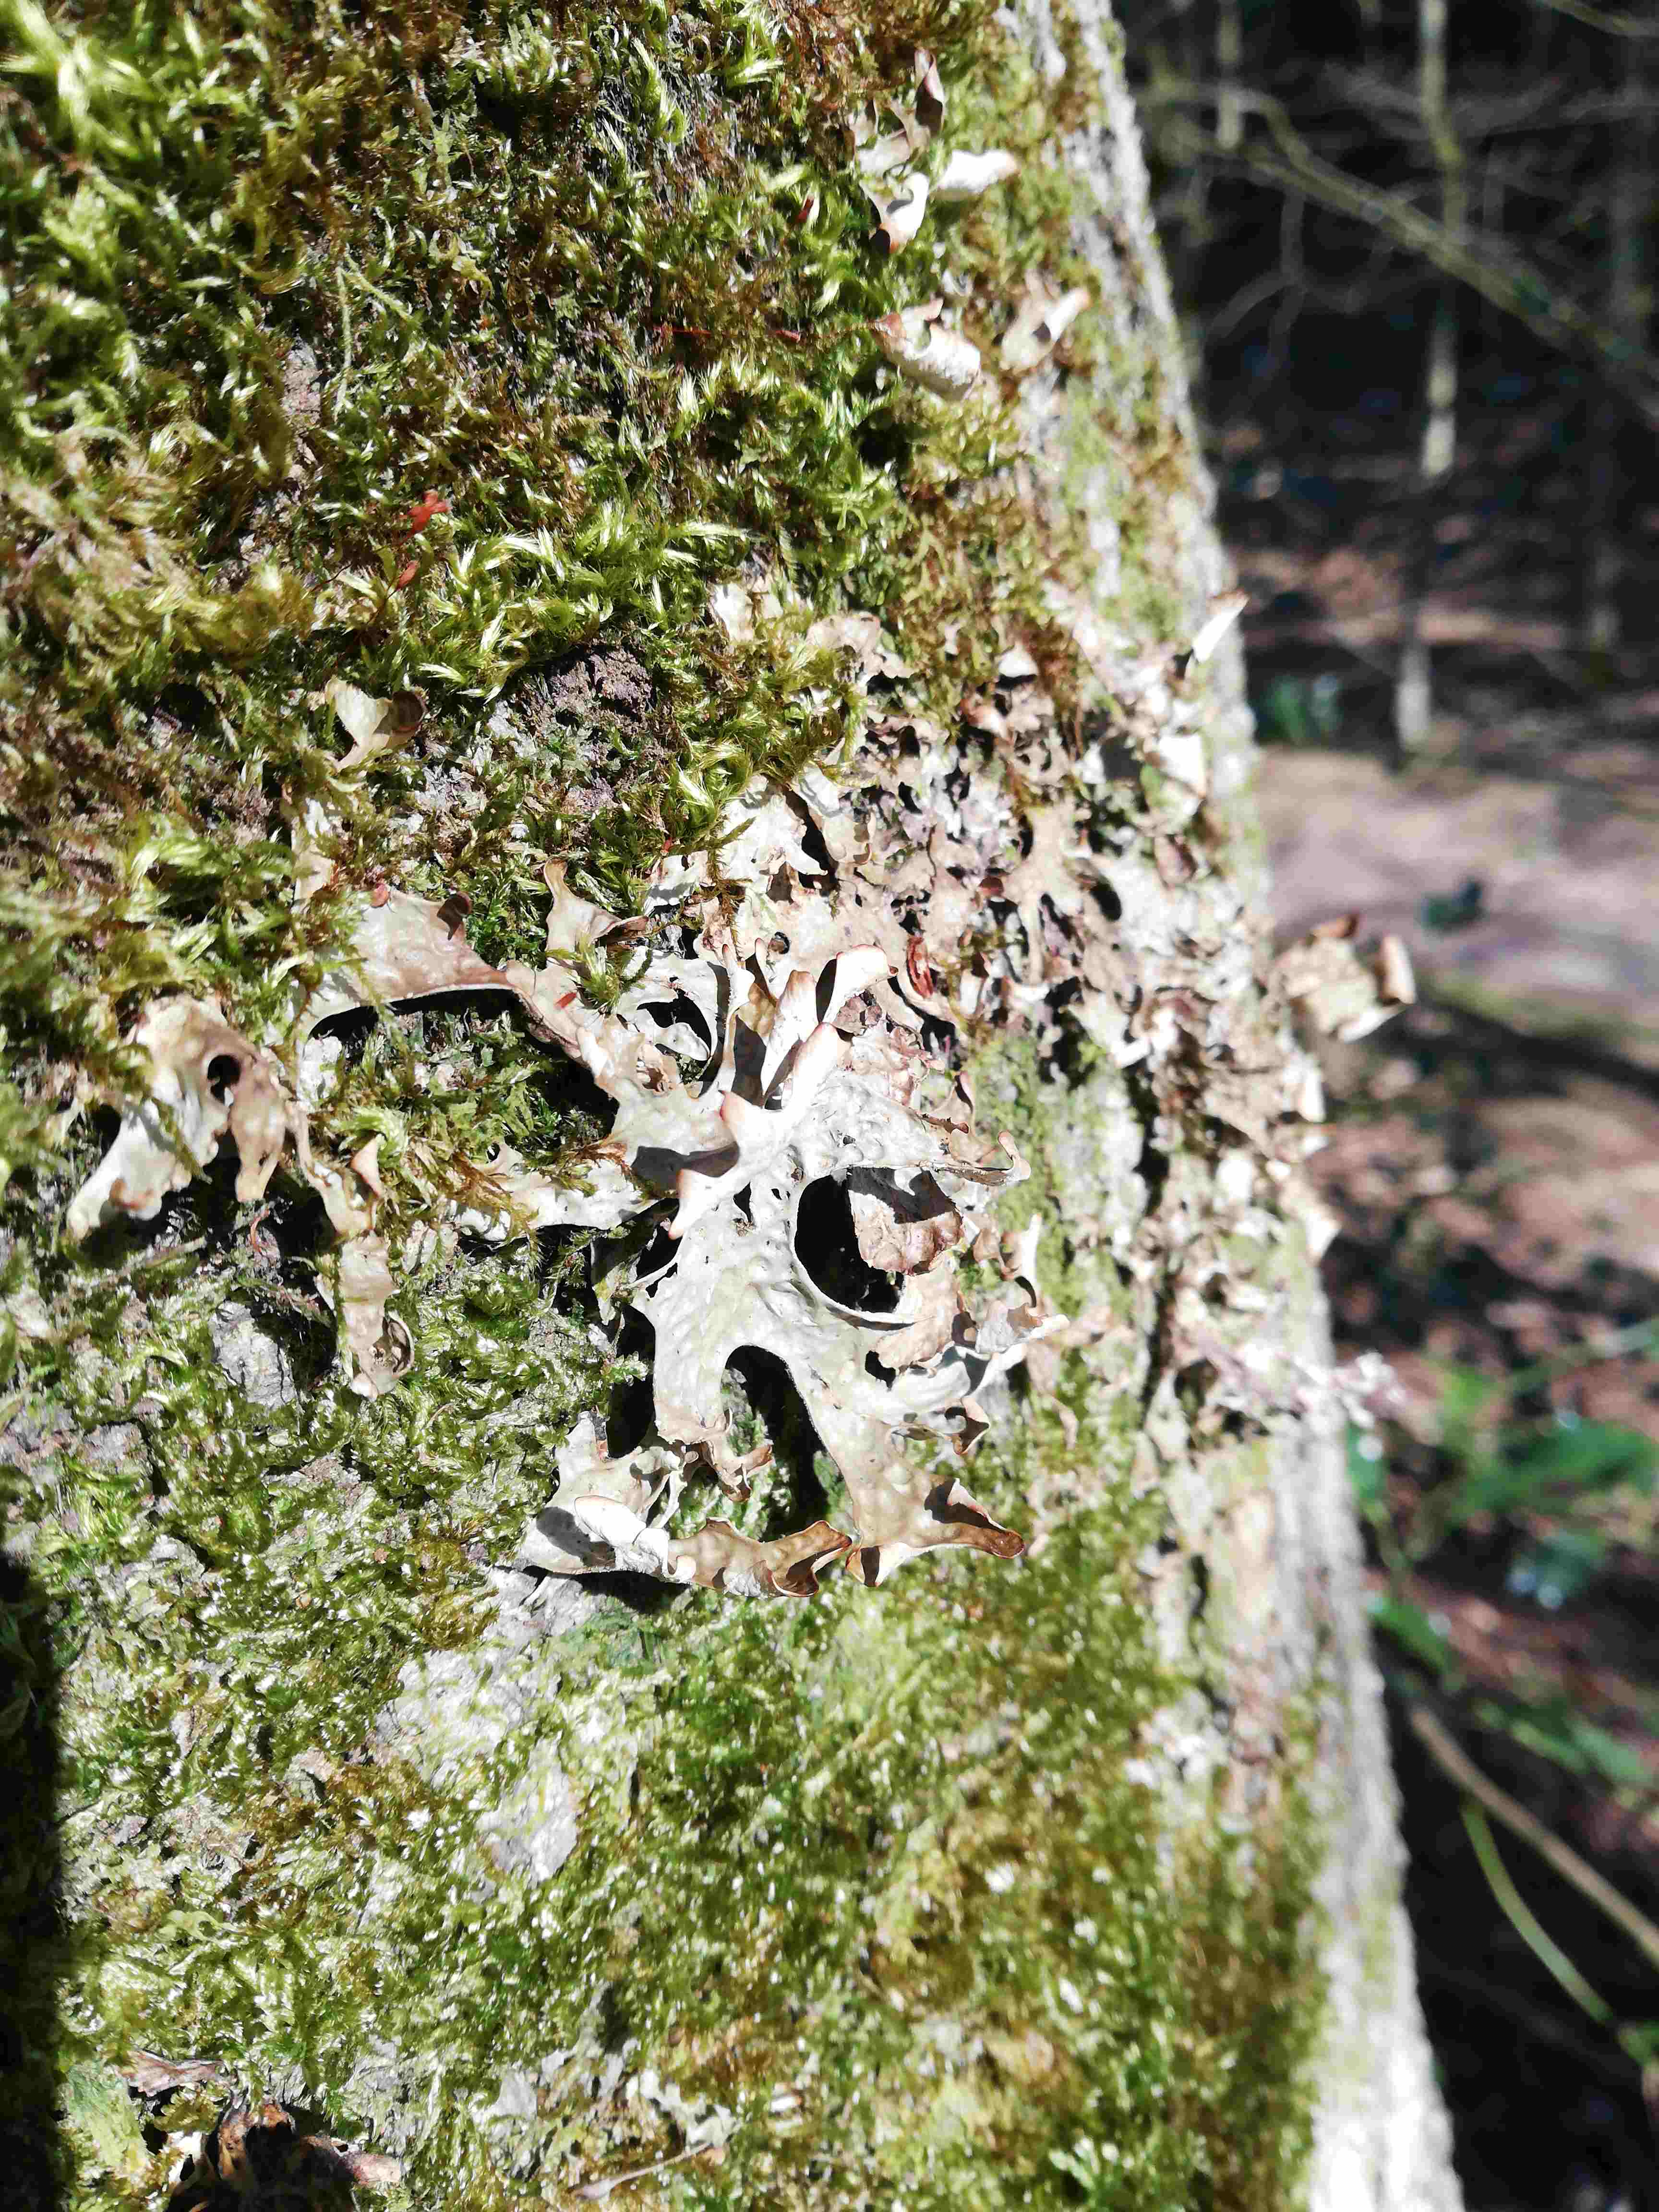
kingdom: Fungi
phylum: Ascomycota
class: Lecanoromycetes
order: Peltigerales
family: Lobariaceae
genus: Lobaria
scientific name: Lobaria pulmonaria
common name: almindelig lungelav
